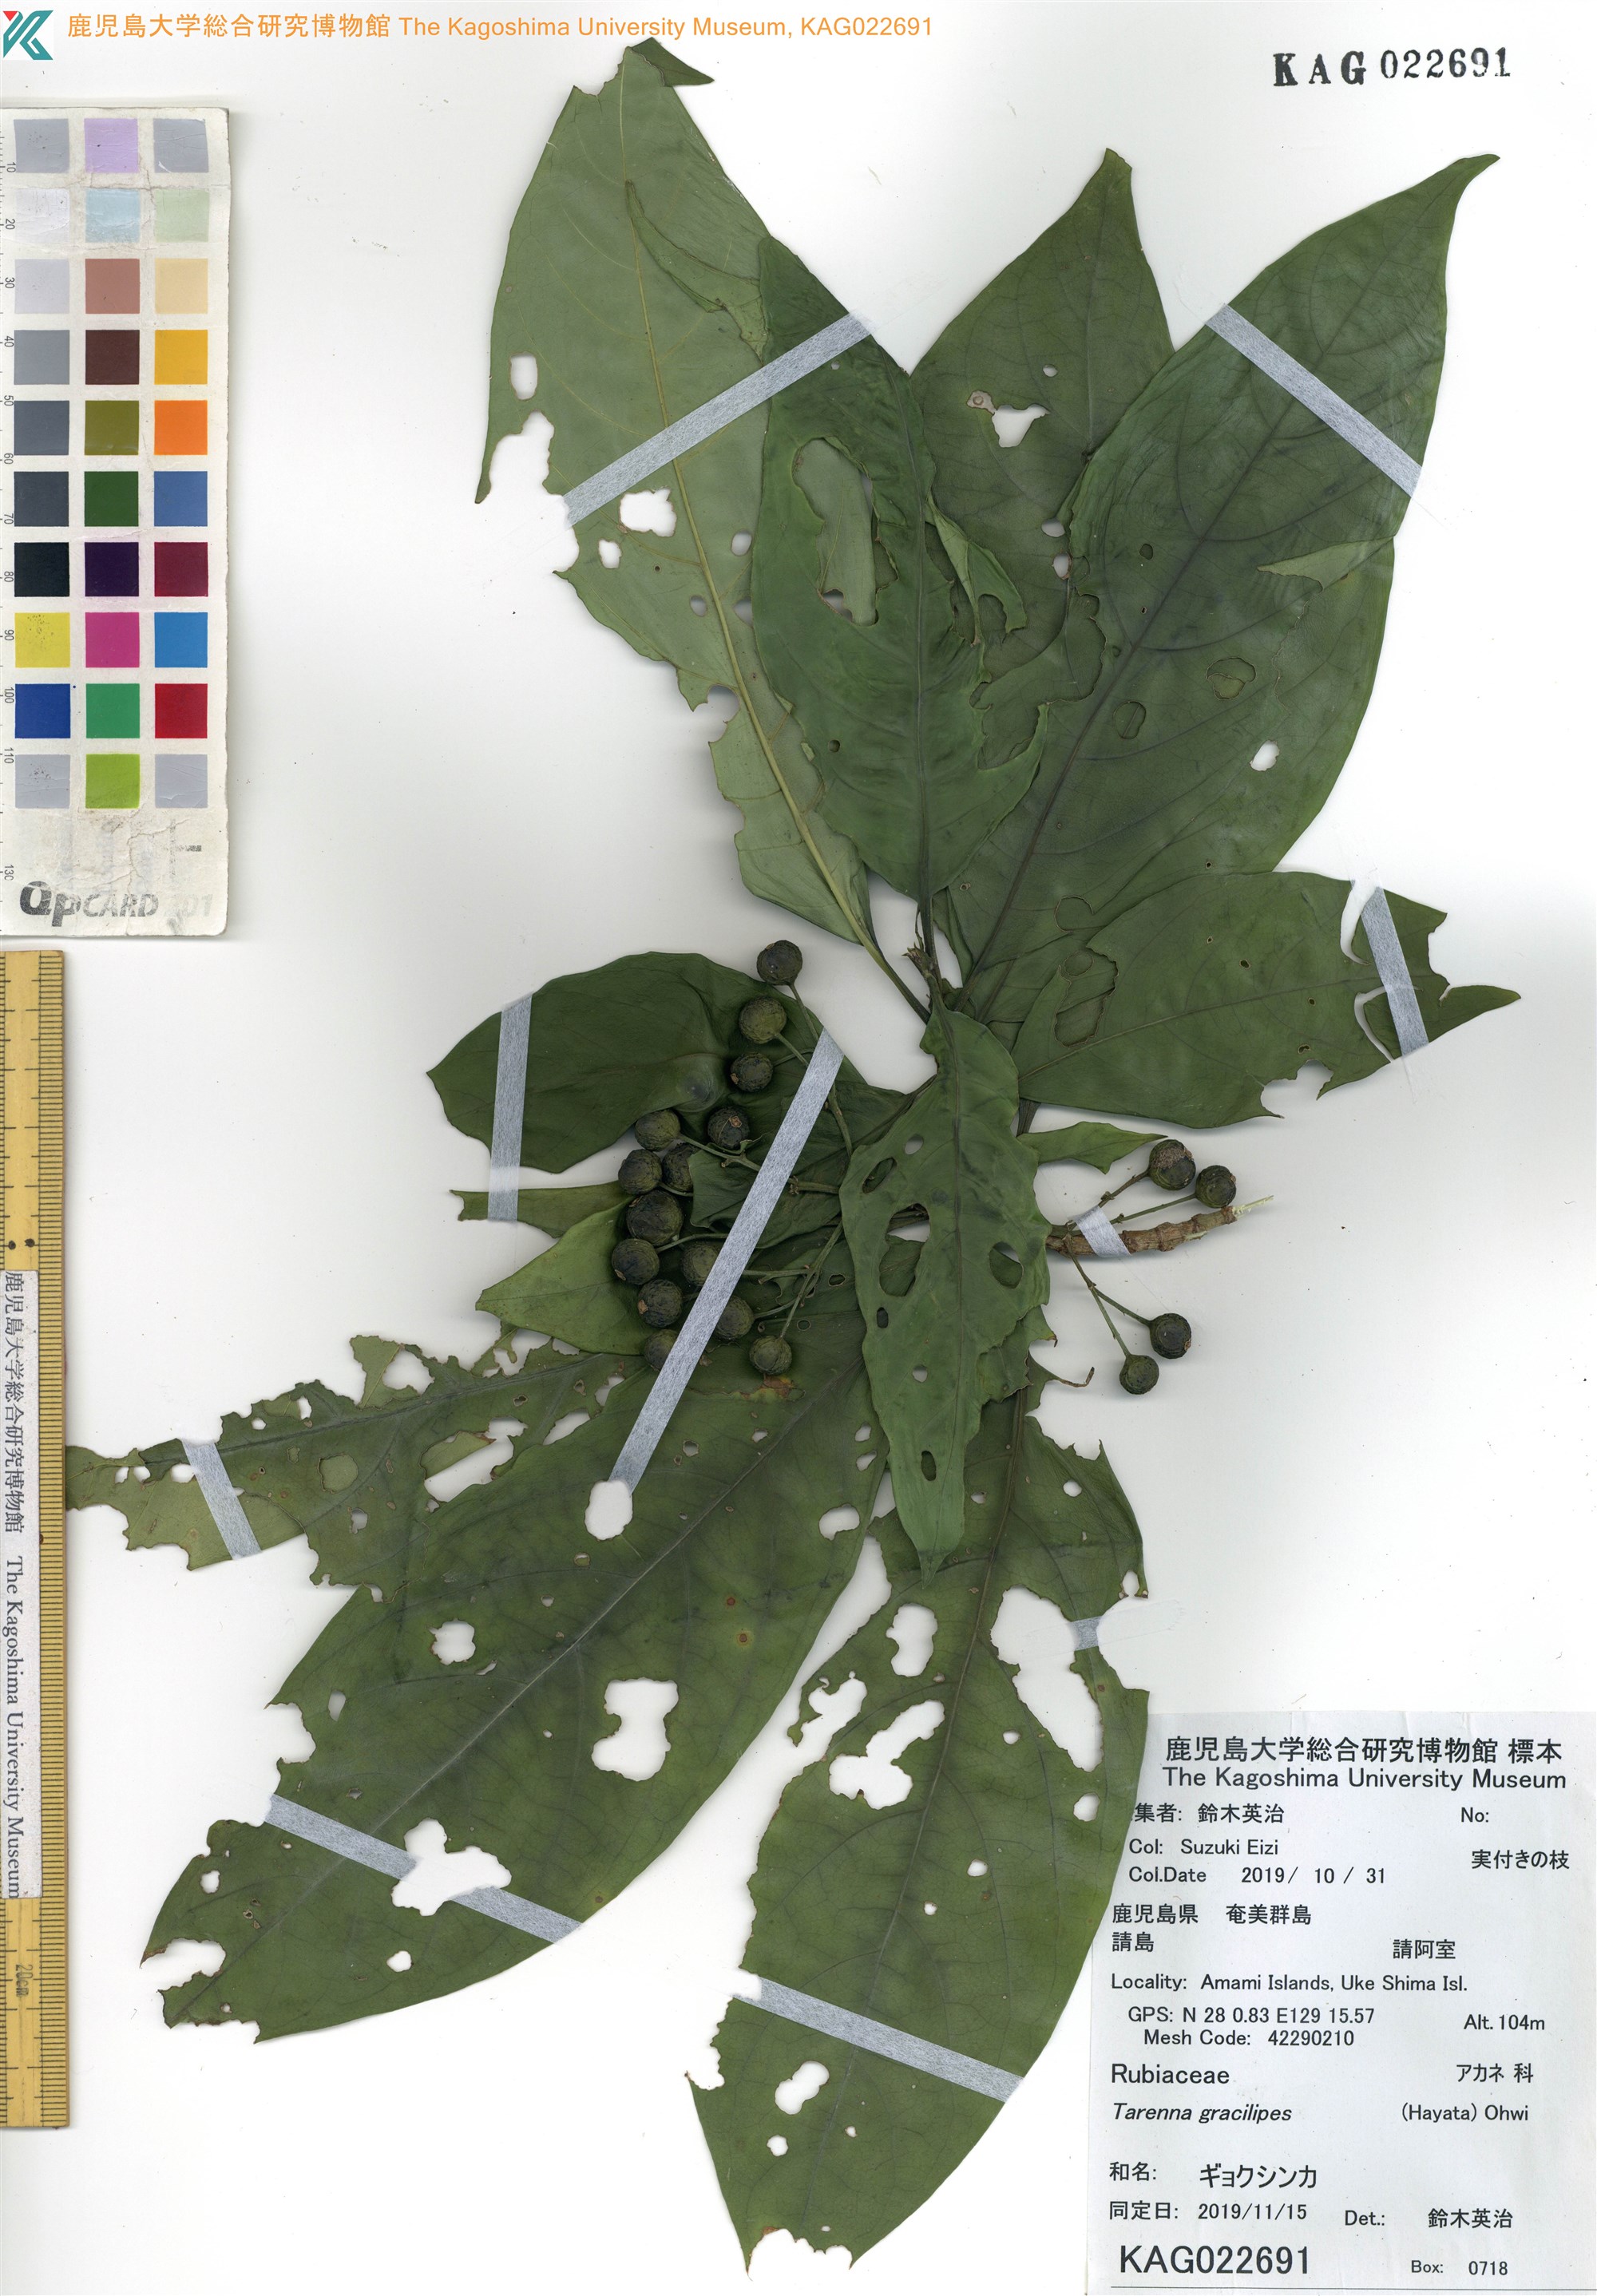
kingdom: Plantae
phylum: Tracheophyta
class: Magnoliopsida
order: Gentianales
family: Rubiaceae
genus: Tarenna
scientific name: Tarenna asiatica
